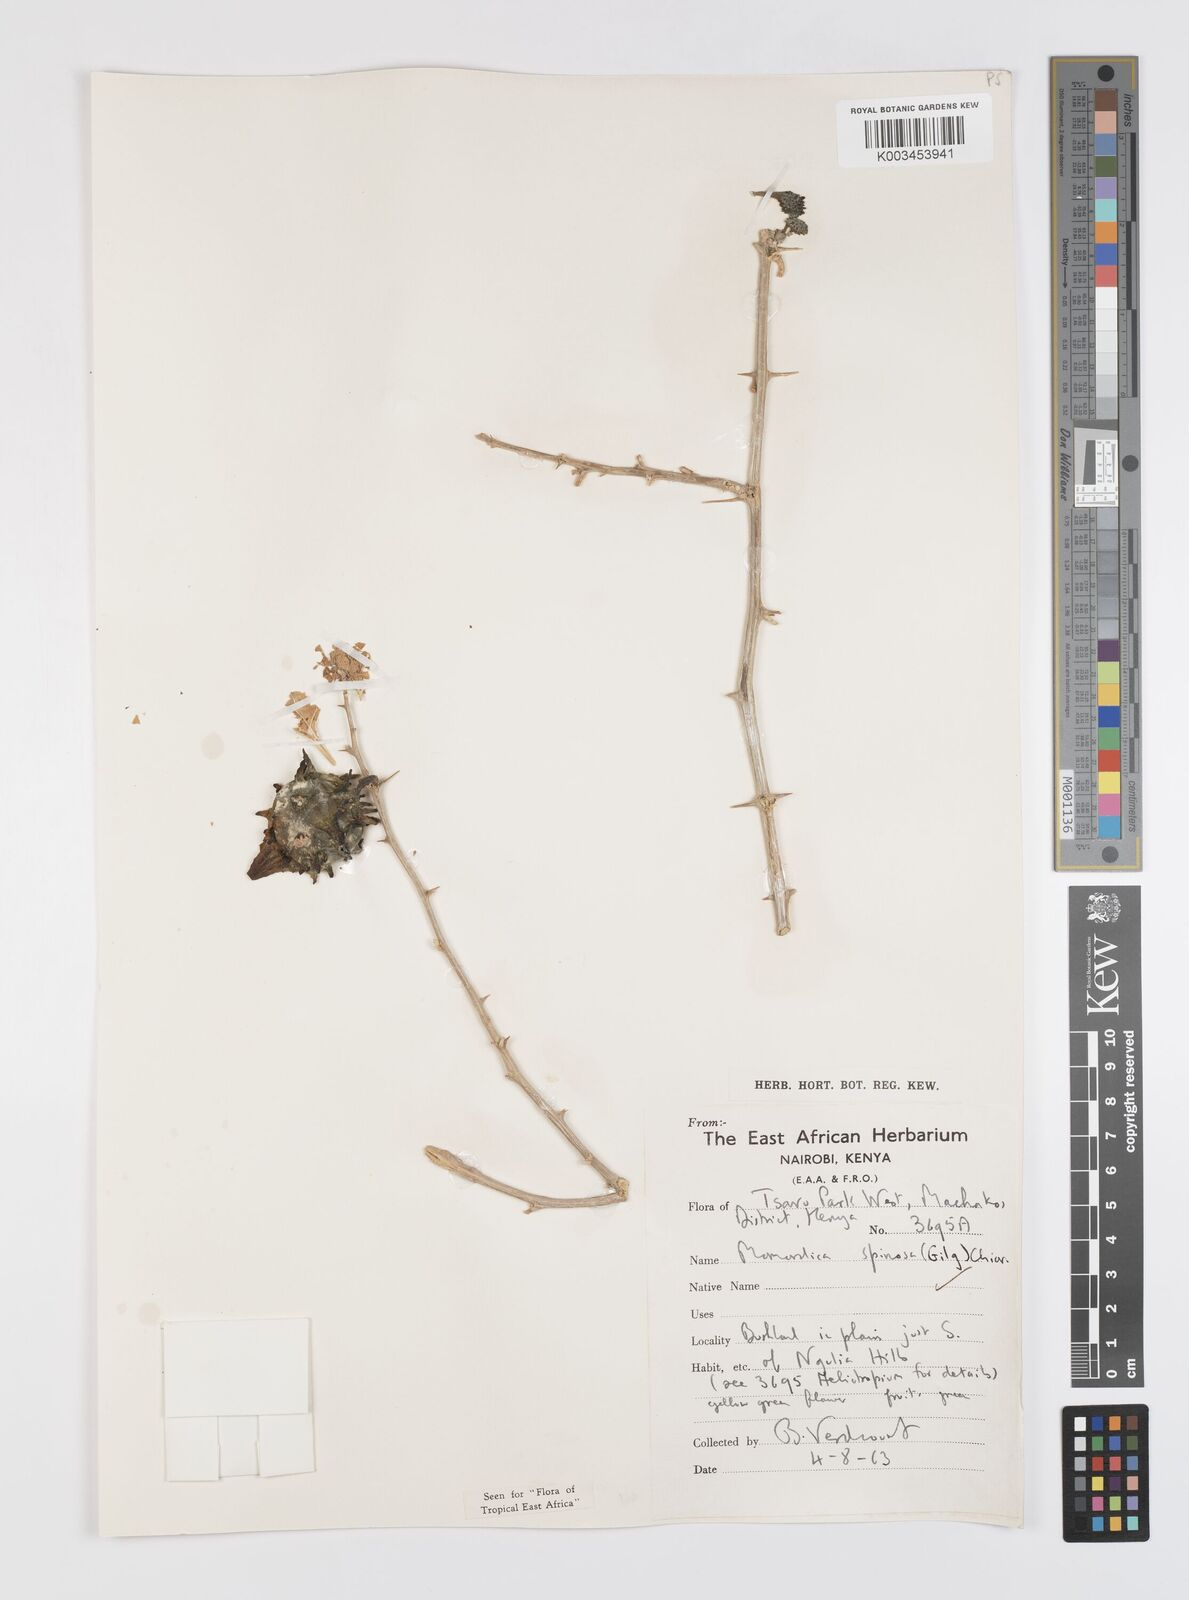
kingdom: Plantae
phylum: Tracheophyta
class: Magnoliopsida
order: Cucurbitales
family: Cucurbitaceae
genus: Momordica
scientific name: Momordica spinosa
